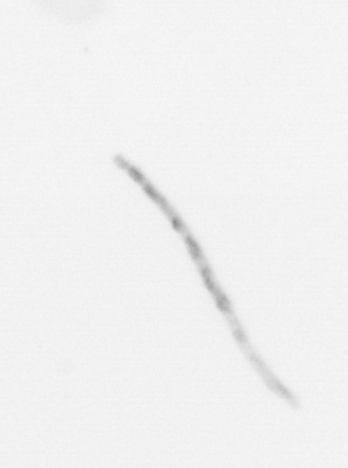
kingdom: Chromista
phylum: Ochrophyta
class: Bacillariophyceae
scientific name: Bacillariophyceae
